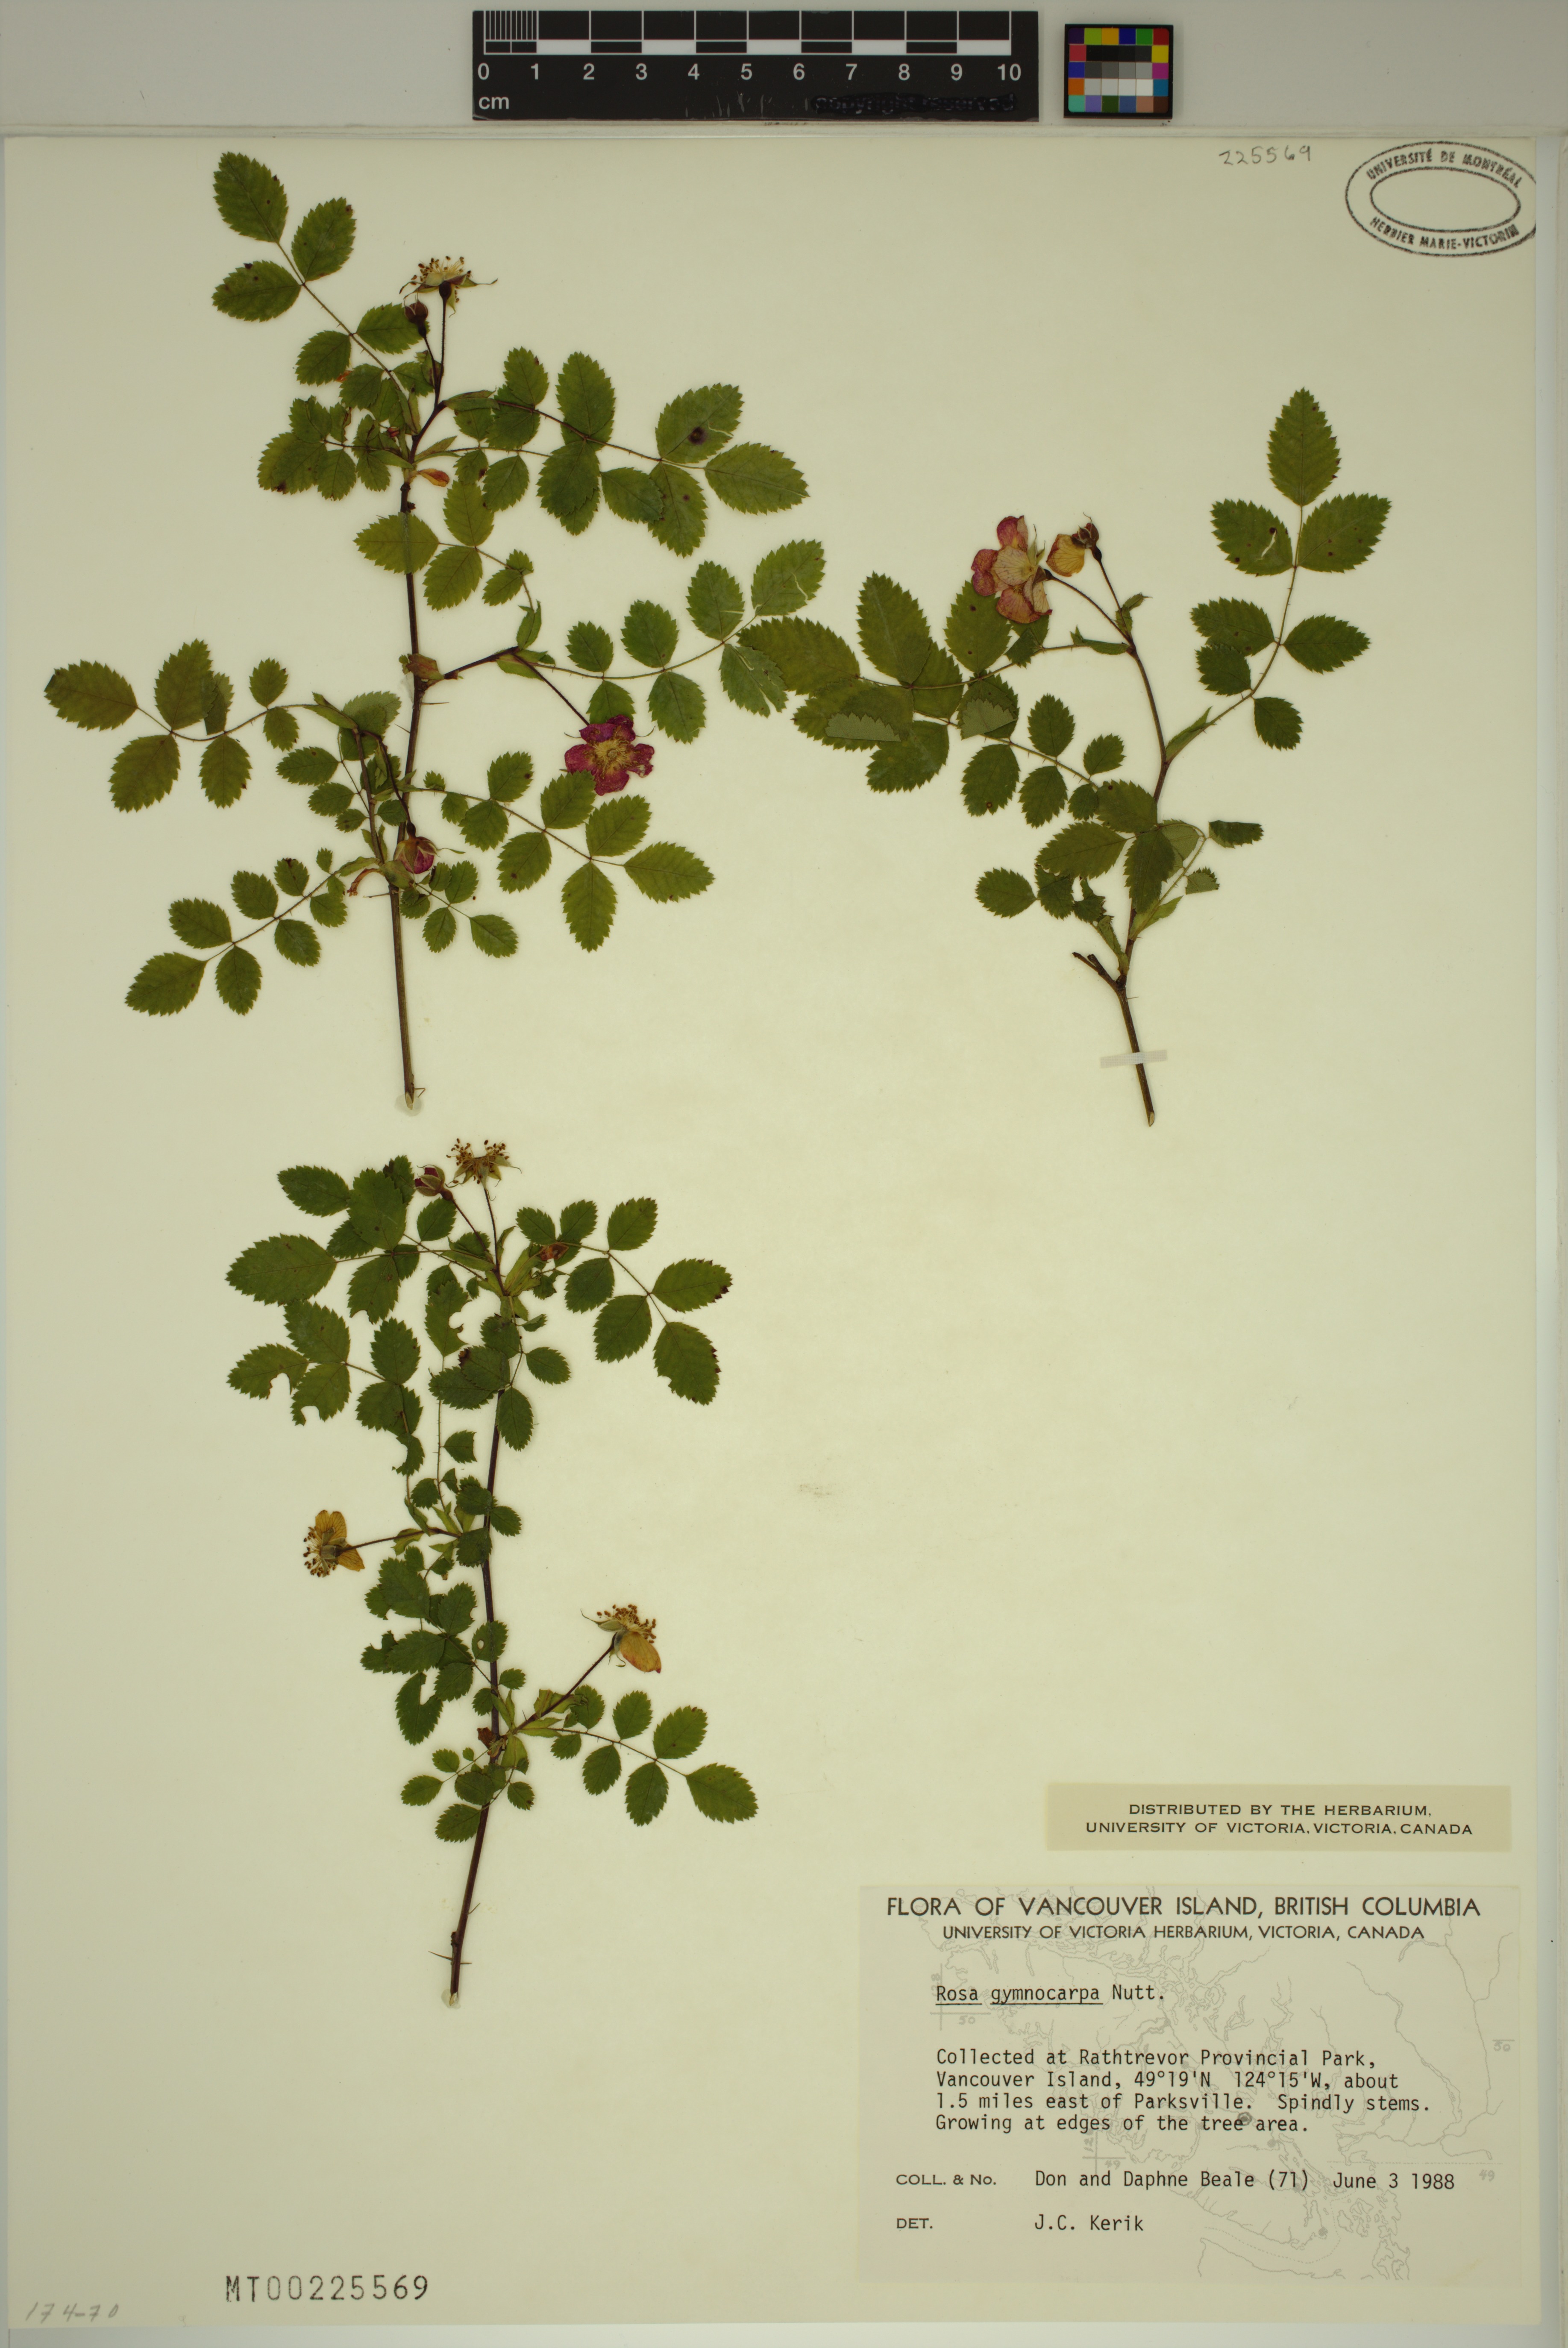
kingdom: Plantae
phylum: Tracheophyta
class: Magnoliopsida
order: Rosales
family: Rosaceae
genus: Rosa
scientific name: Rosa gymnocarpa
